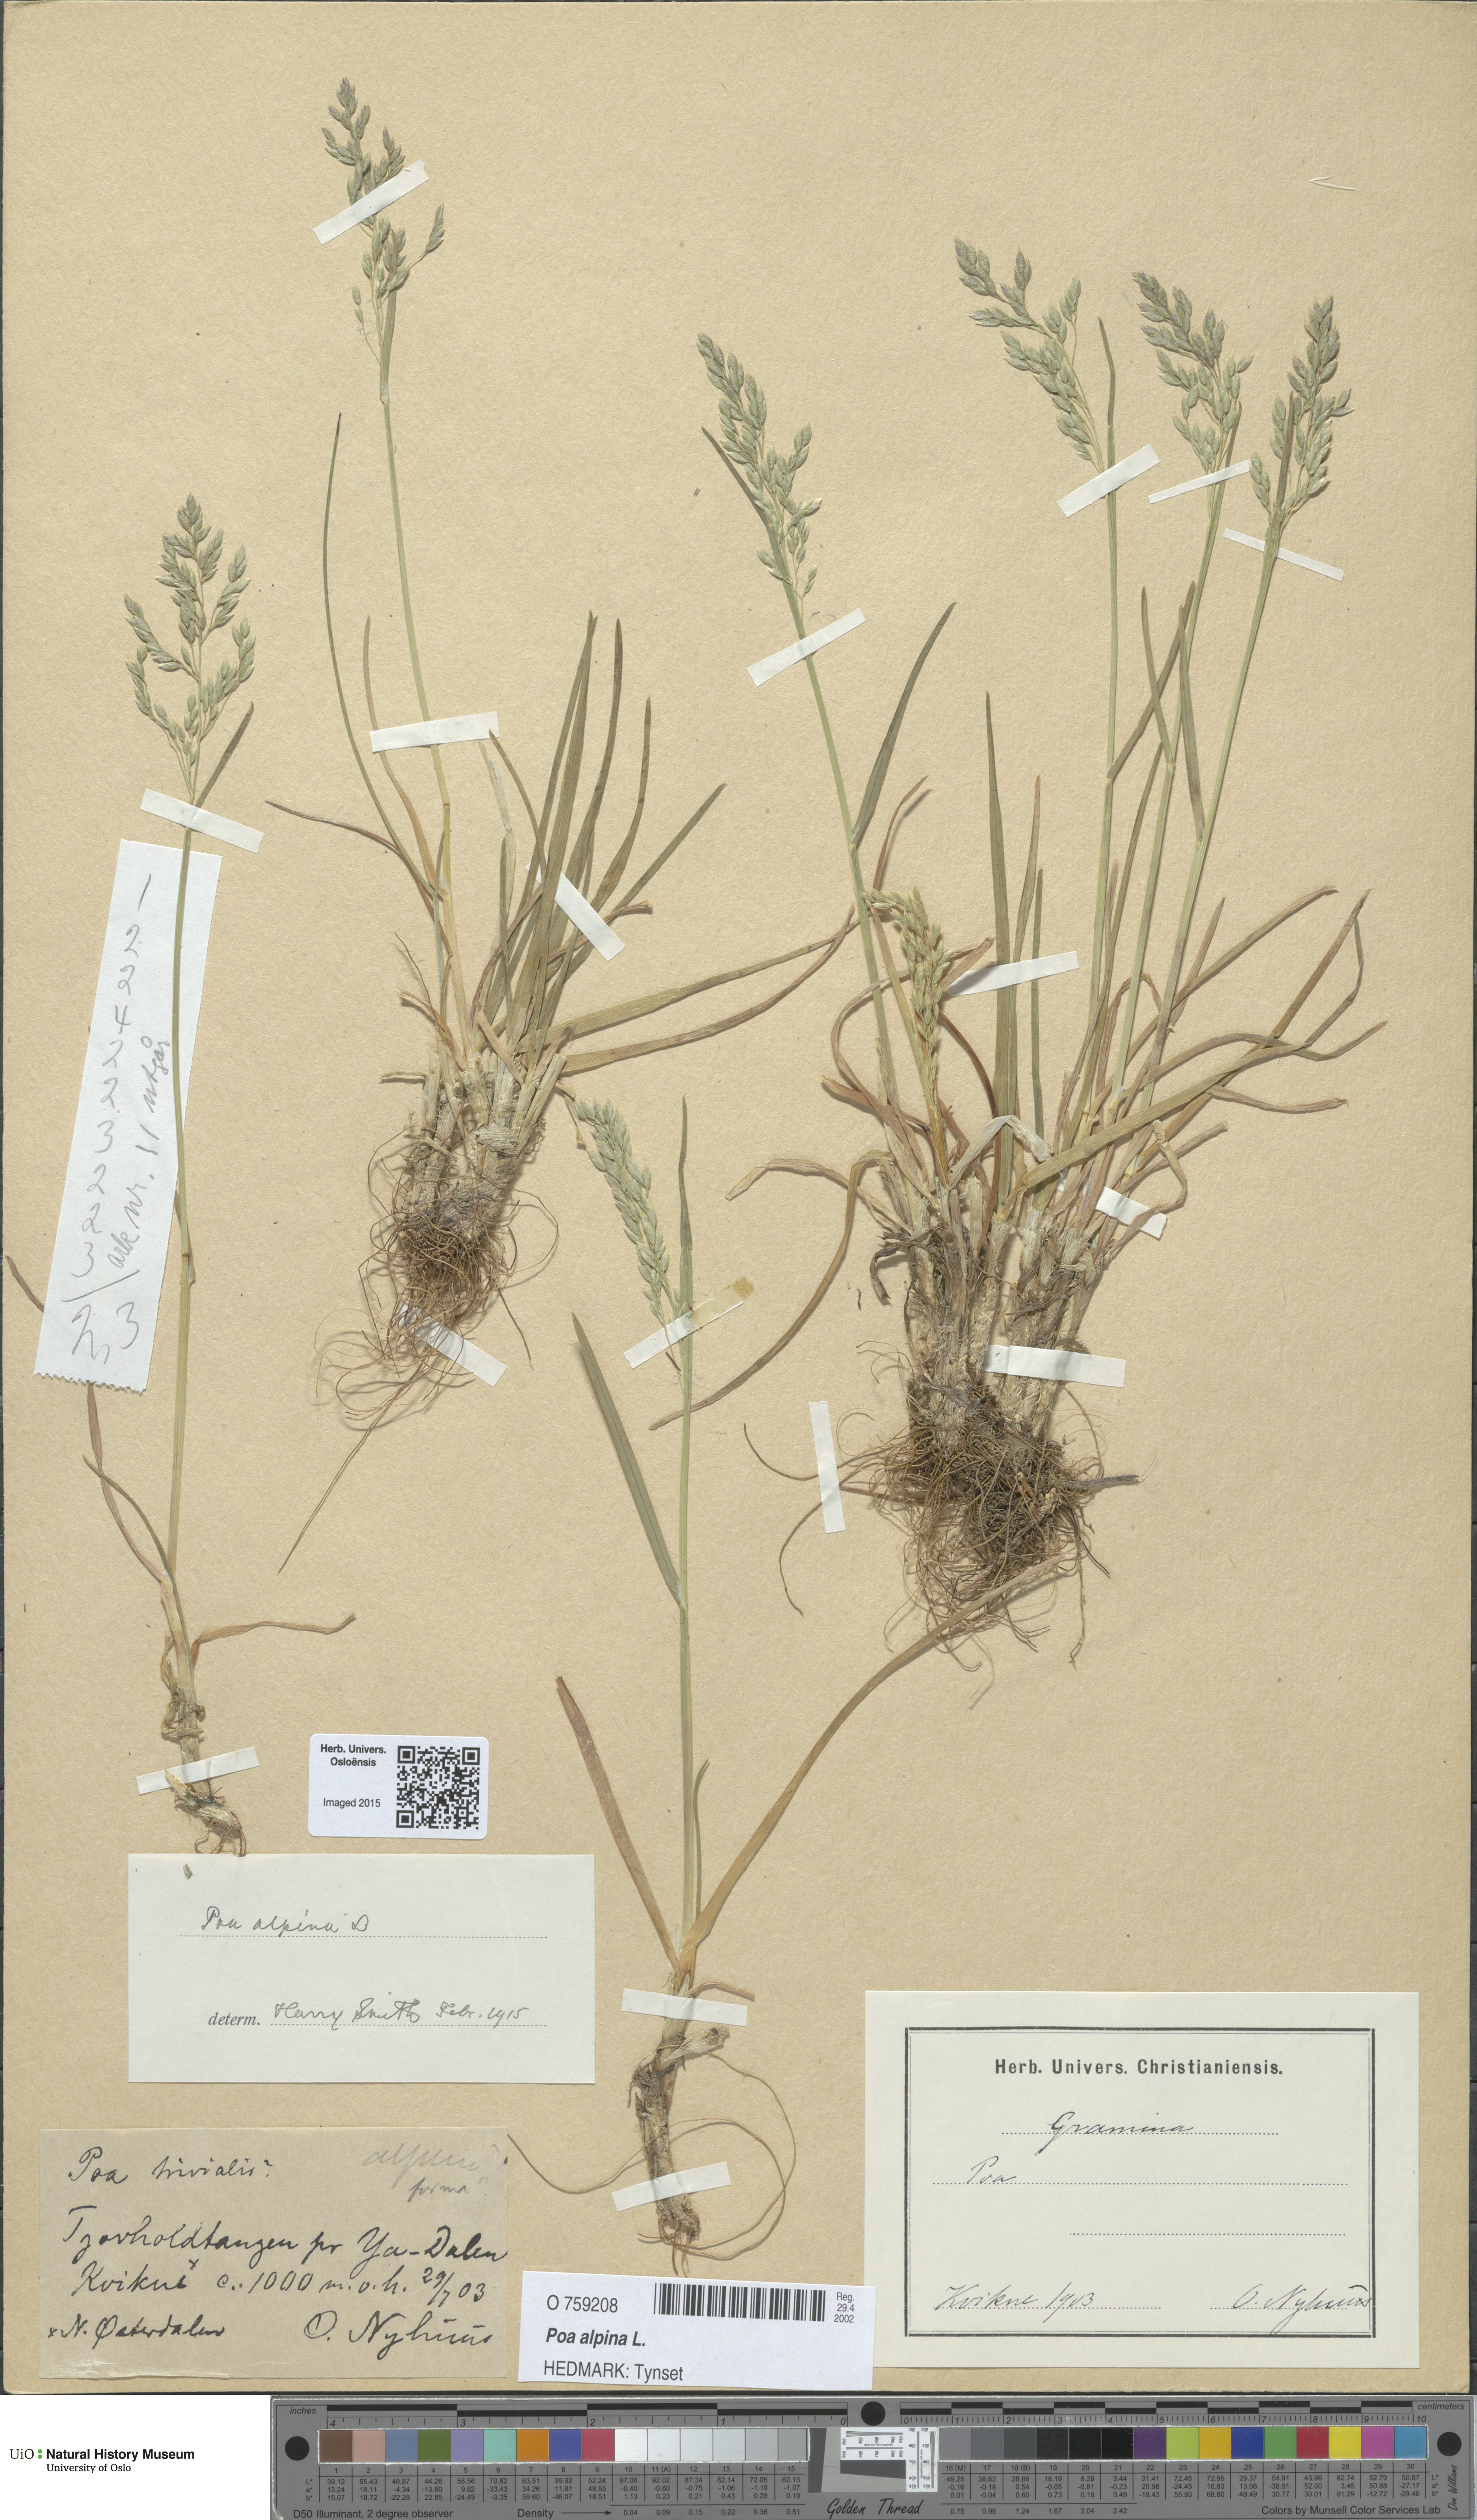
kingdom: Plantae
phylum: Tracheophyta
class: Liliopsida
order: Poales
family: Poaceae
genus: Poa
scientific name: Poa alpina
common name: Alpine bluegrass
